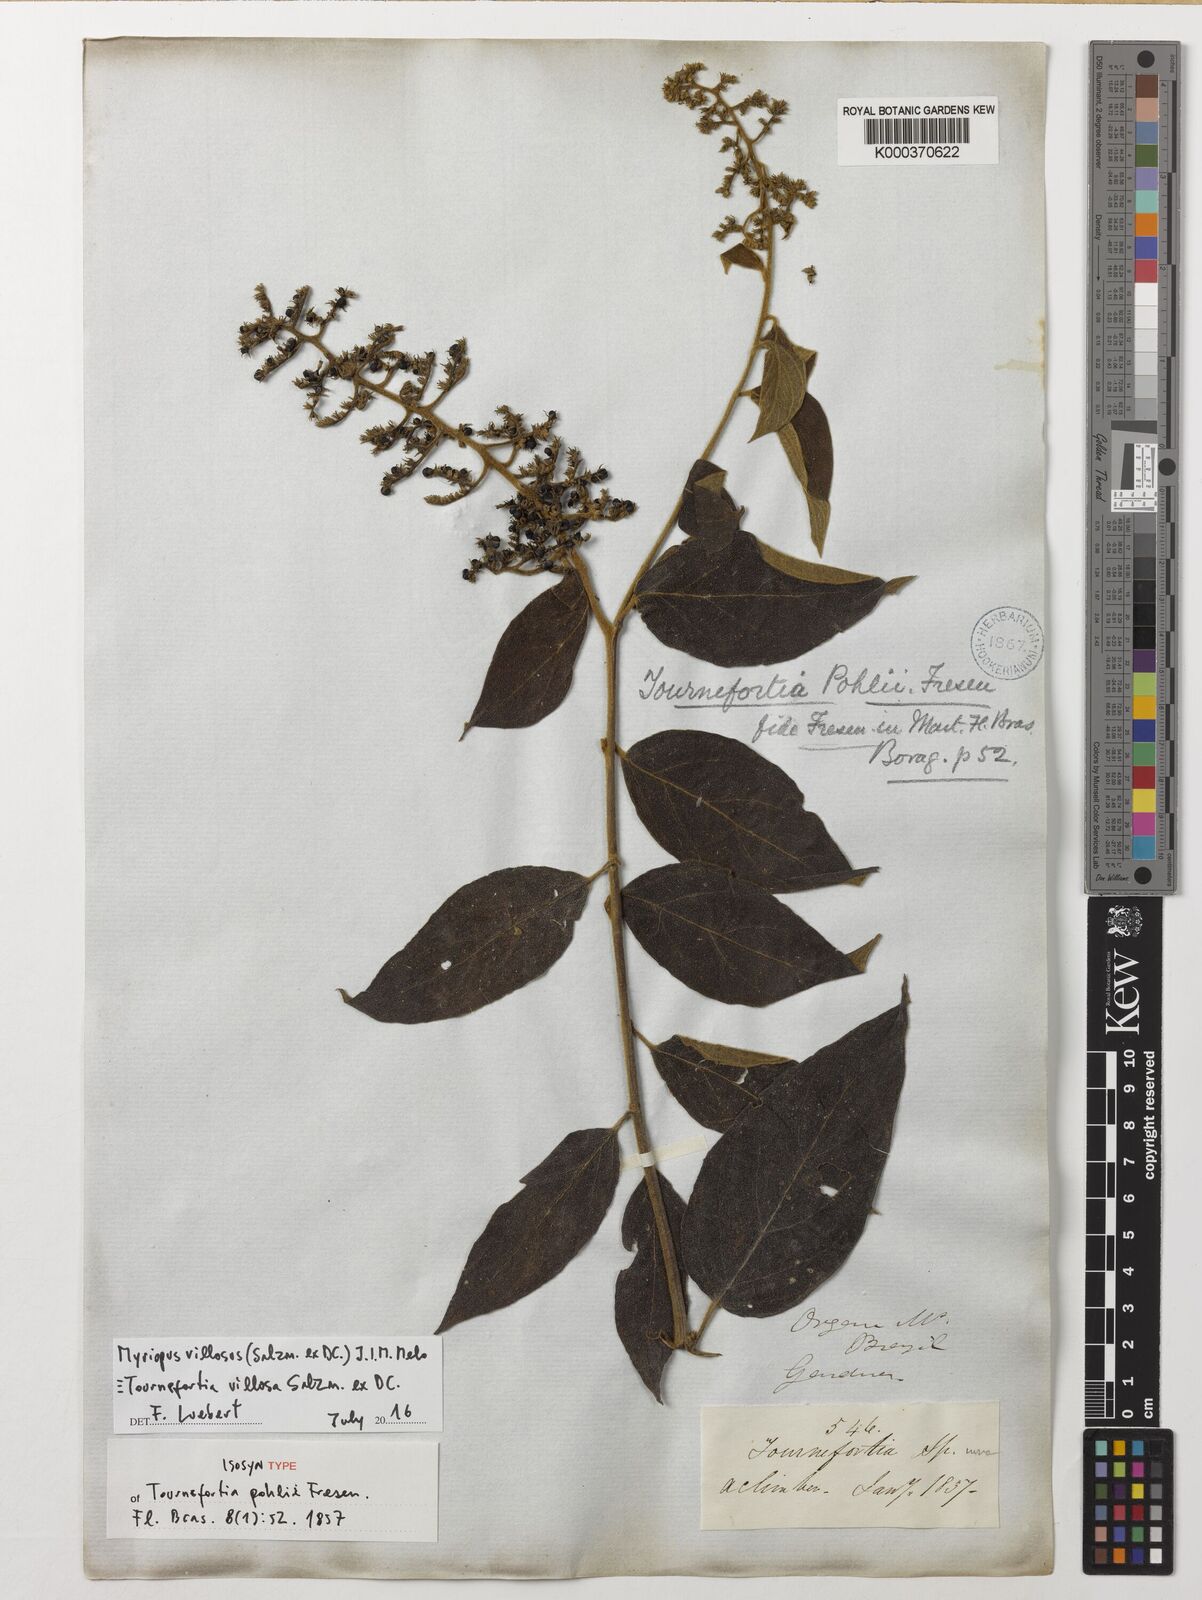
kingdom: Plantae
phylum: Tracheophyta
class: Magnoliopsida
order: Boraginales
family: Heliotropiaceae
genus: Tournefortia
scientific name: Tournefortia villosa
